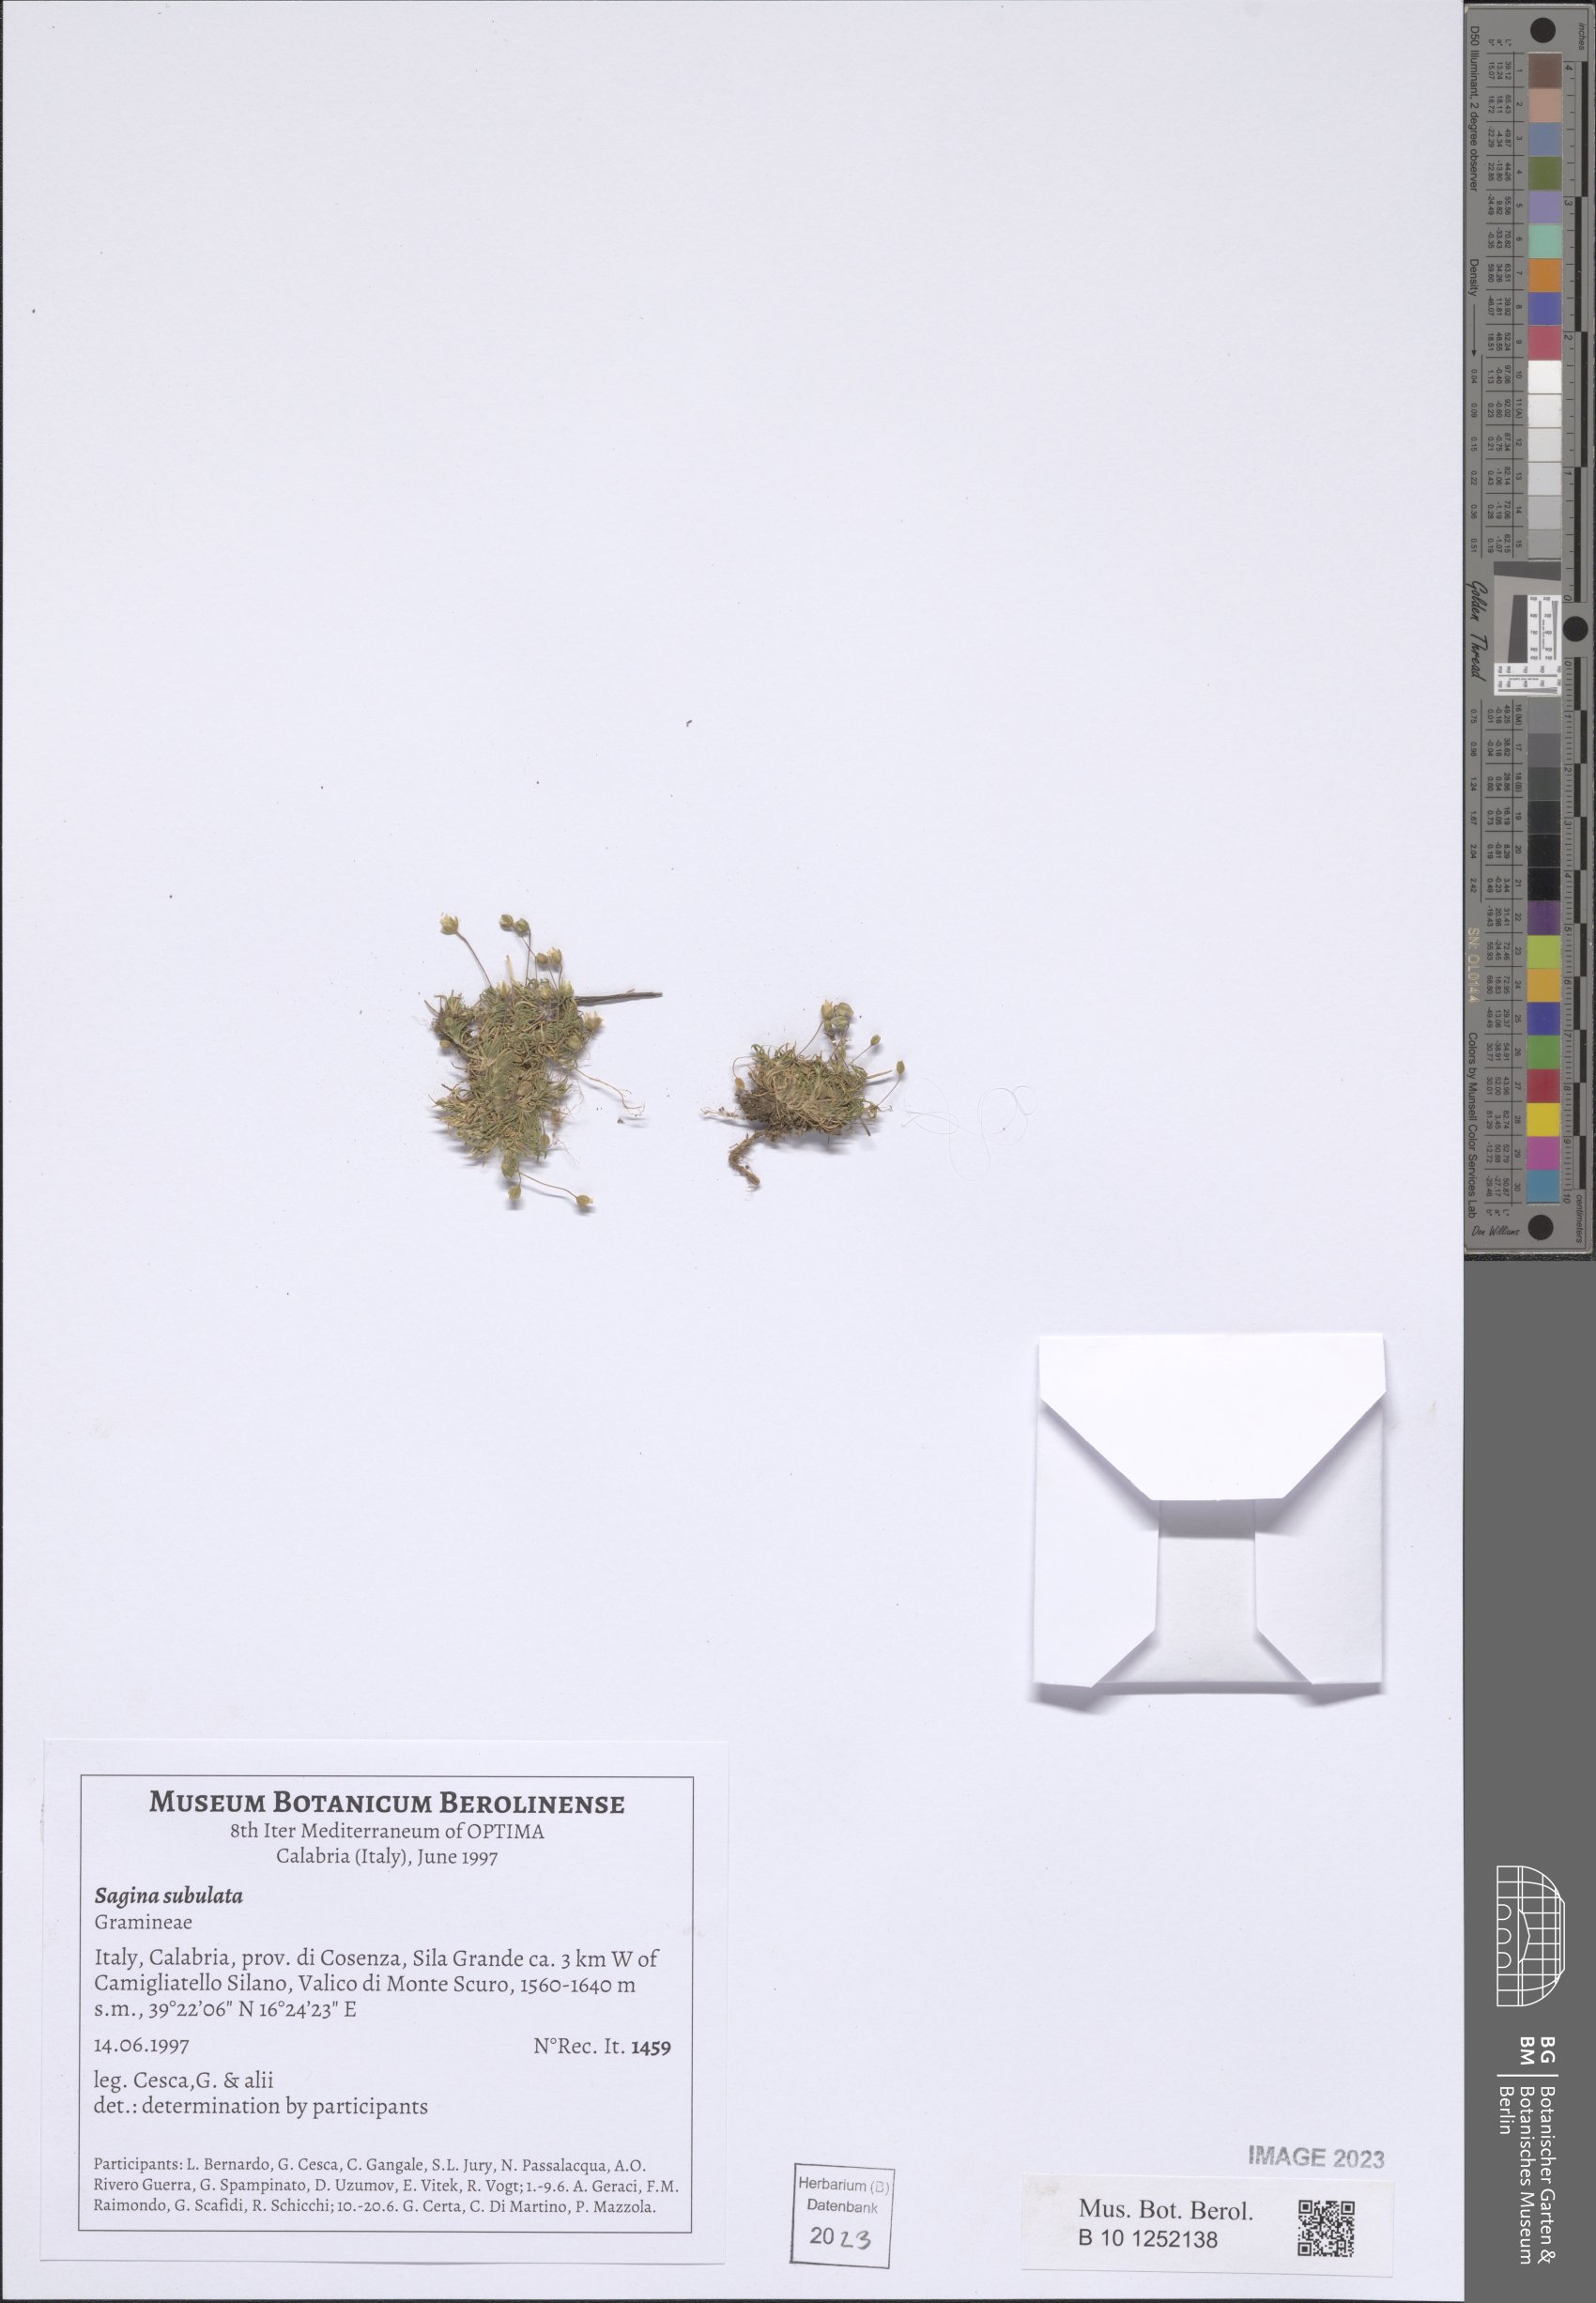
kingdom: Plantae
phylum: Tracheophyta
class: Magnoliopsida
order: Caryophyllales
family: Caryophyllaceae
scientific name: Caryophyllaceae
